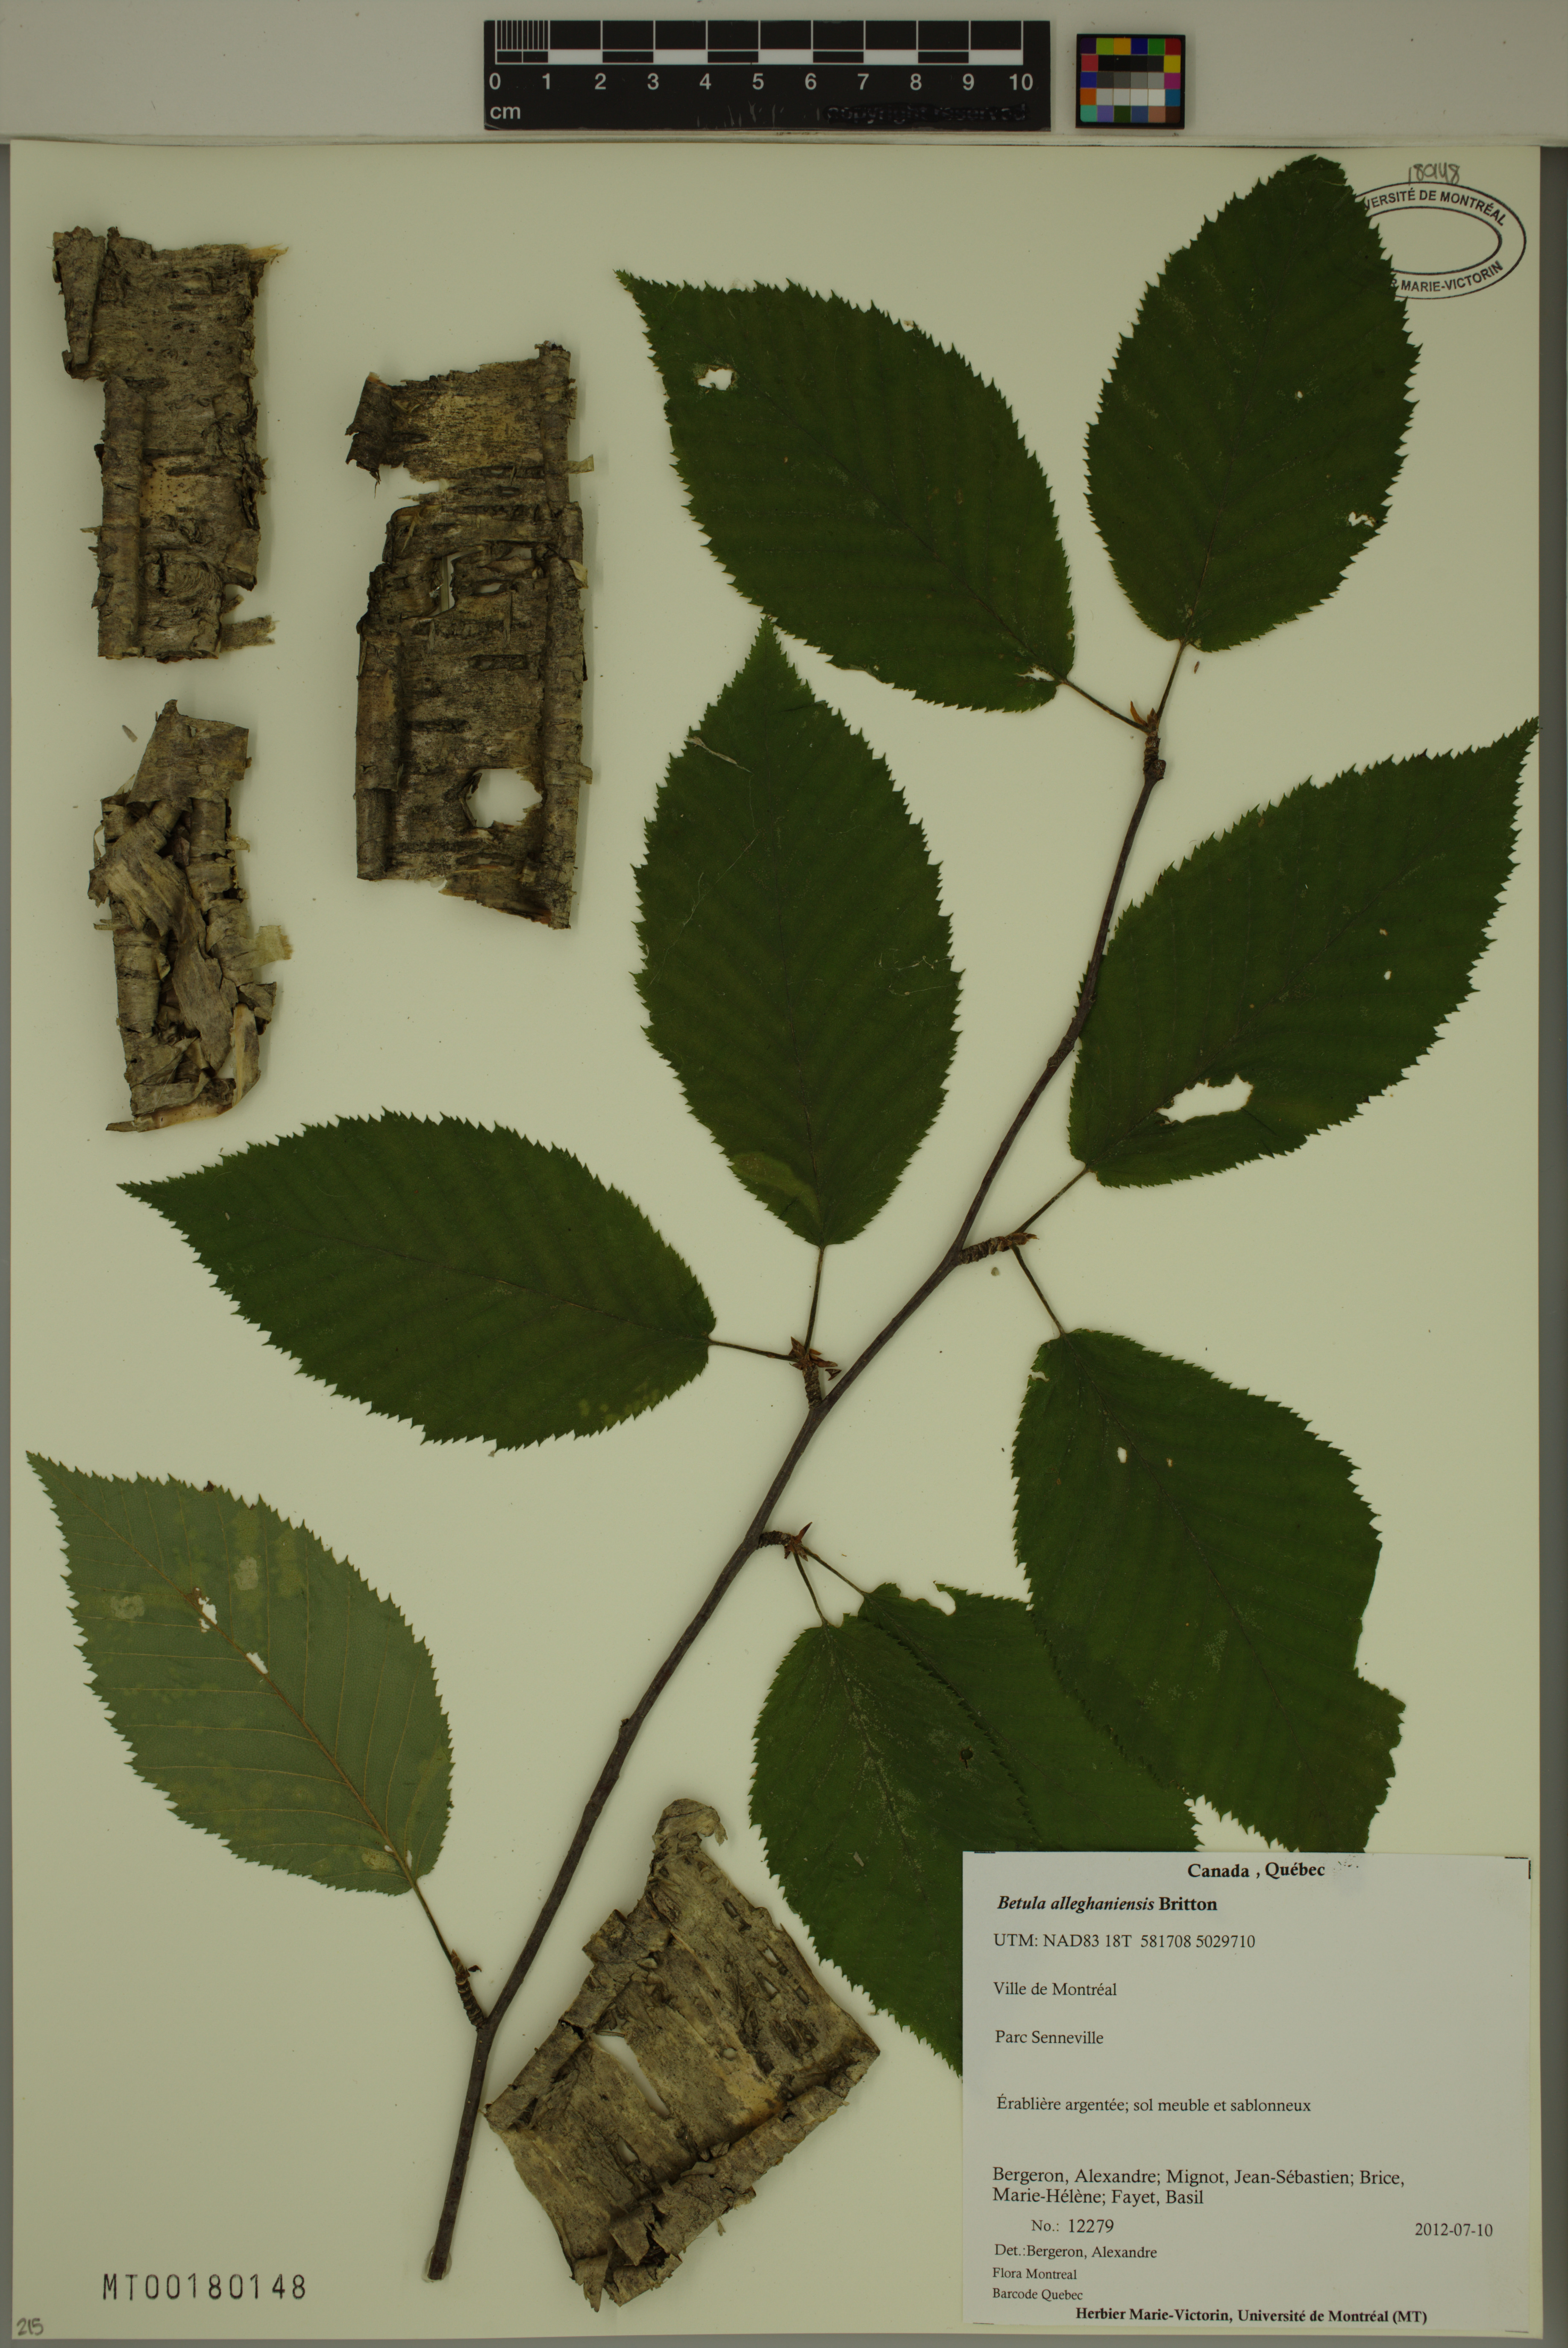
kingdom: Plantae
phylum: Tracheophyta
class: Magnoliopsida
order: Fagales
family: Betulaceae
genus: Betula
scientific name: Betula alleghaniensis
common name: Yellow birch
